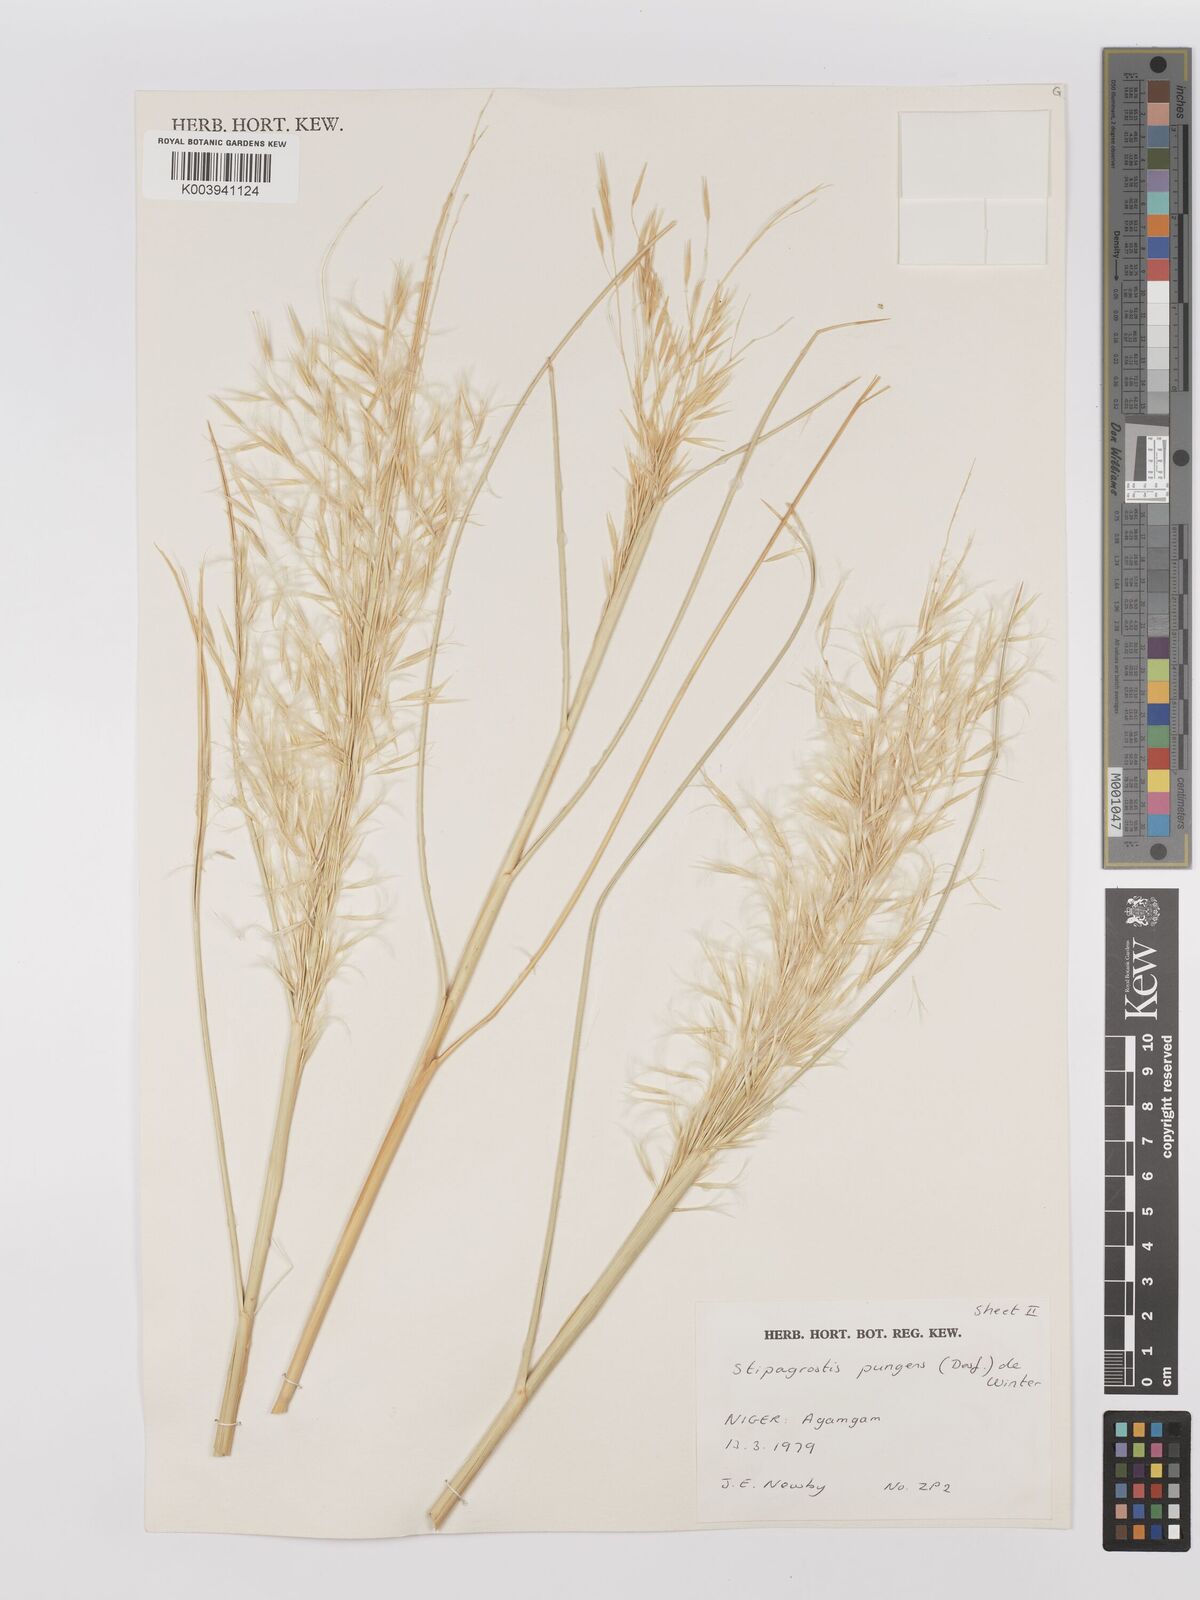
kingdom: Plantae
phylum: Tracheophyta
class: Liliopsida
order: Poales
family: Poaceae
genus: Stipagrostis
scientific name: Stipagrostis pungens
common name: Three-awn grass
